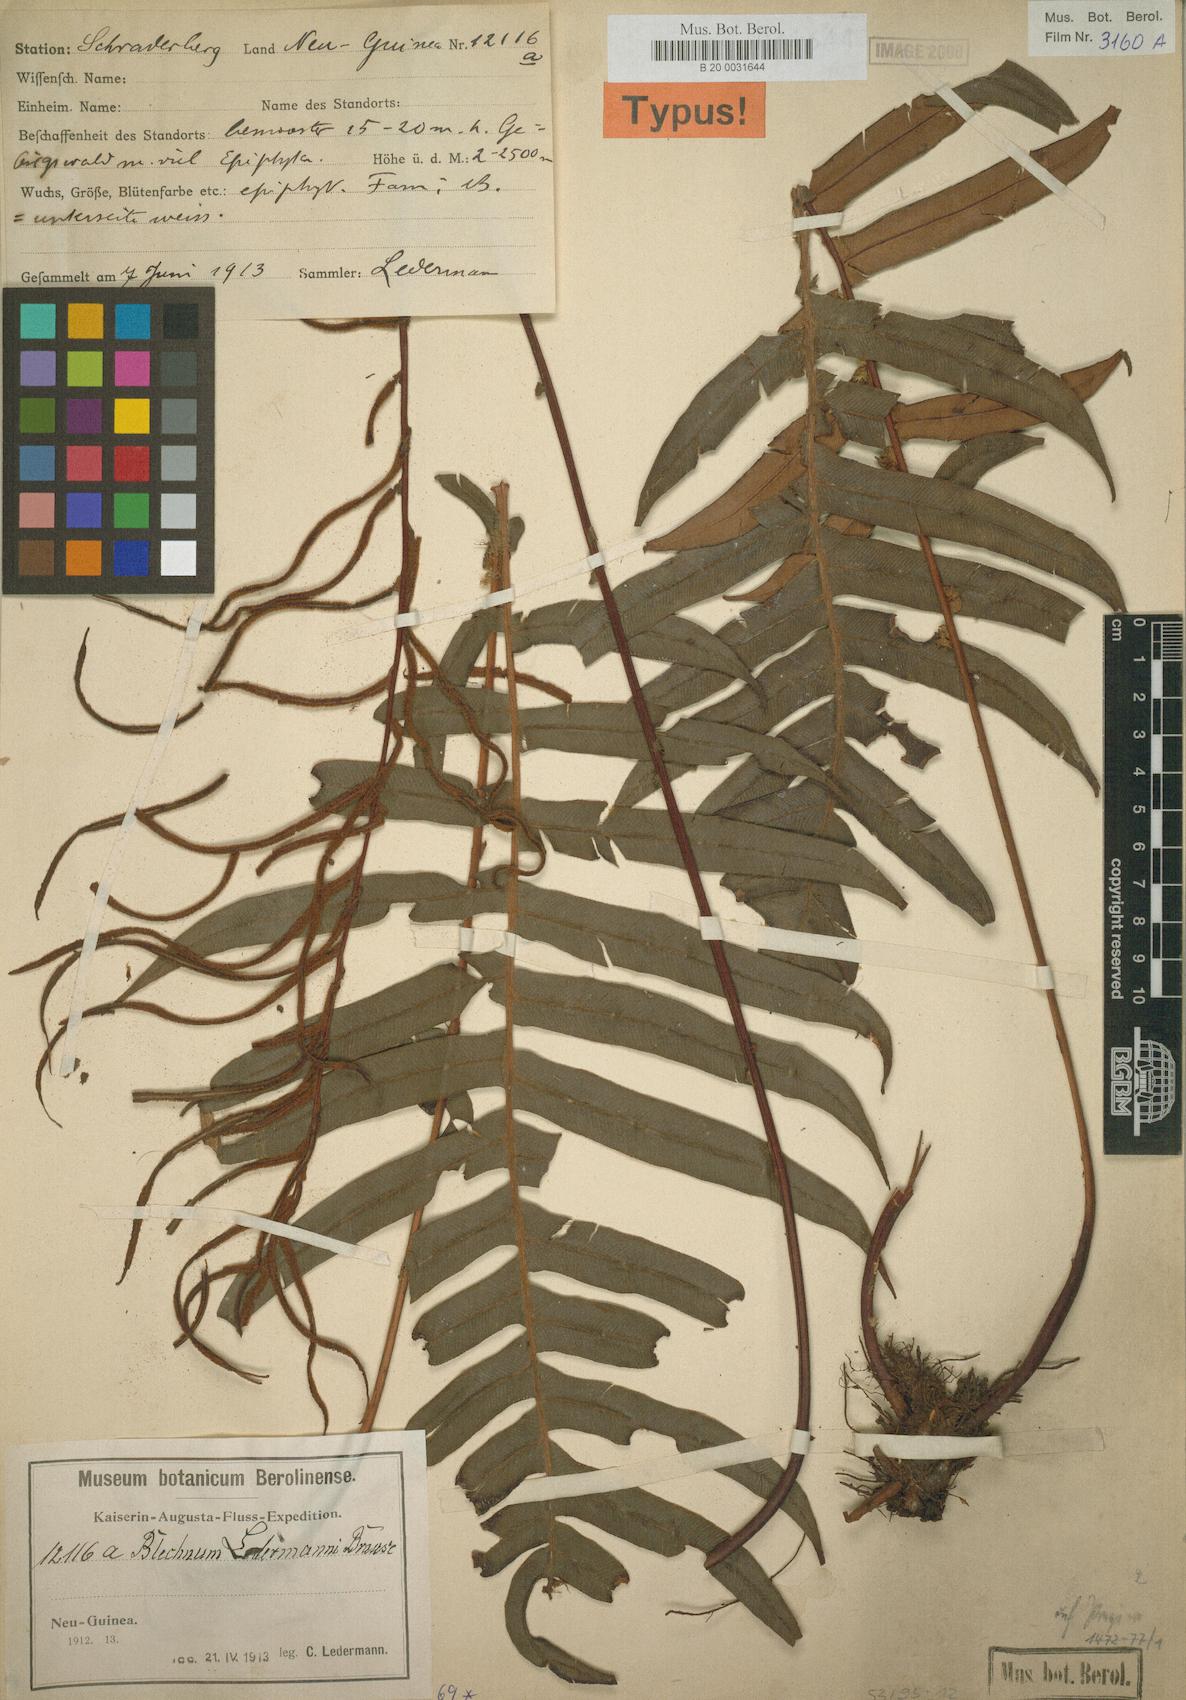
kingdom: Plantae
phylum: Tracheophyta
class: Polypodiopsida
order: Polypodiales
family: Blechnaceae
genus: Austroblechnum
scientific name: Austroblechnum keysseri
